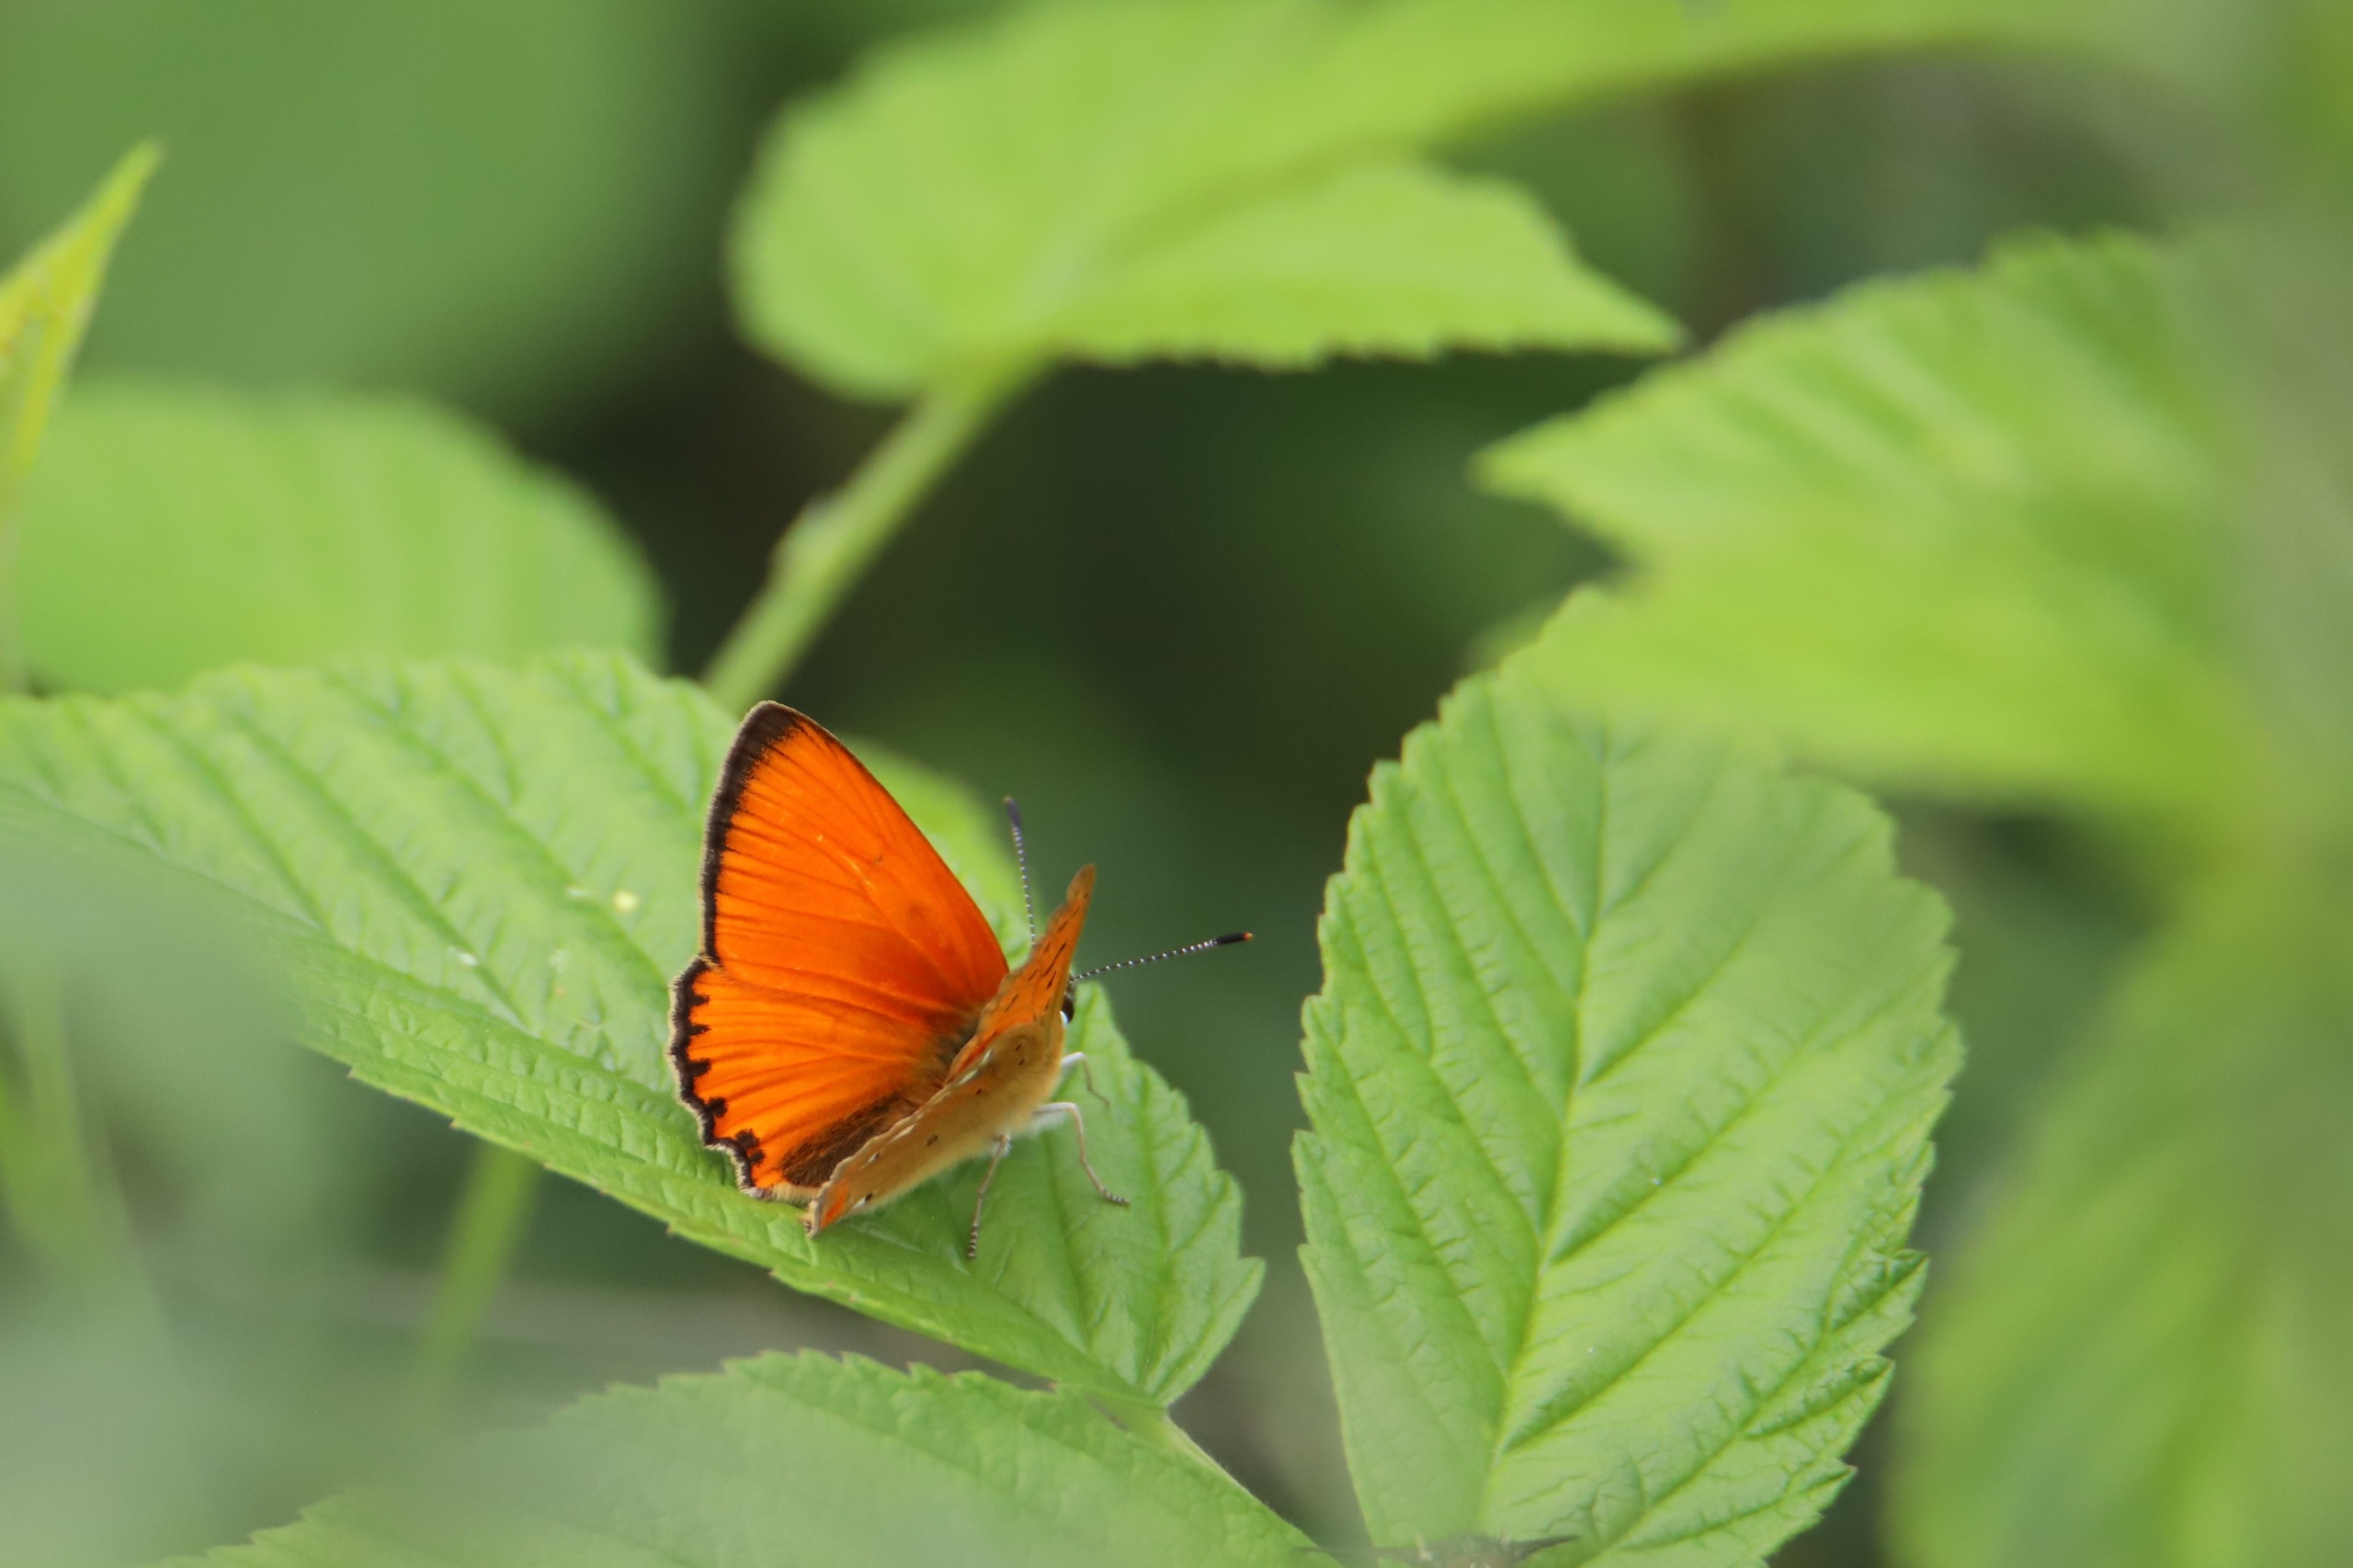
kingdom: Animalia
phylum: Arthropoda
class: Insecta
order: Lepidoptera
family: Lycaenidae
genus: Lycaena
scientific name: Lycaena virgaureae
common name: Dukatsommerfugl
